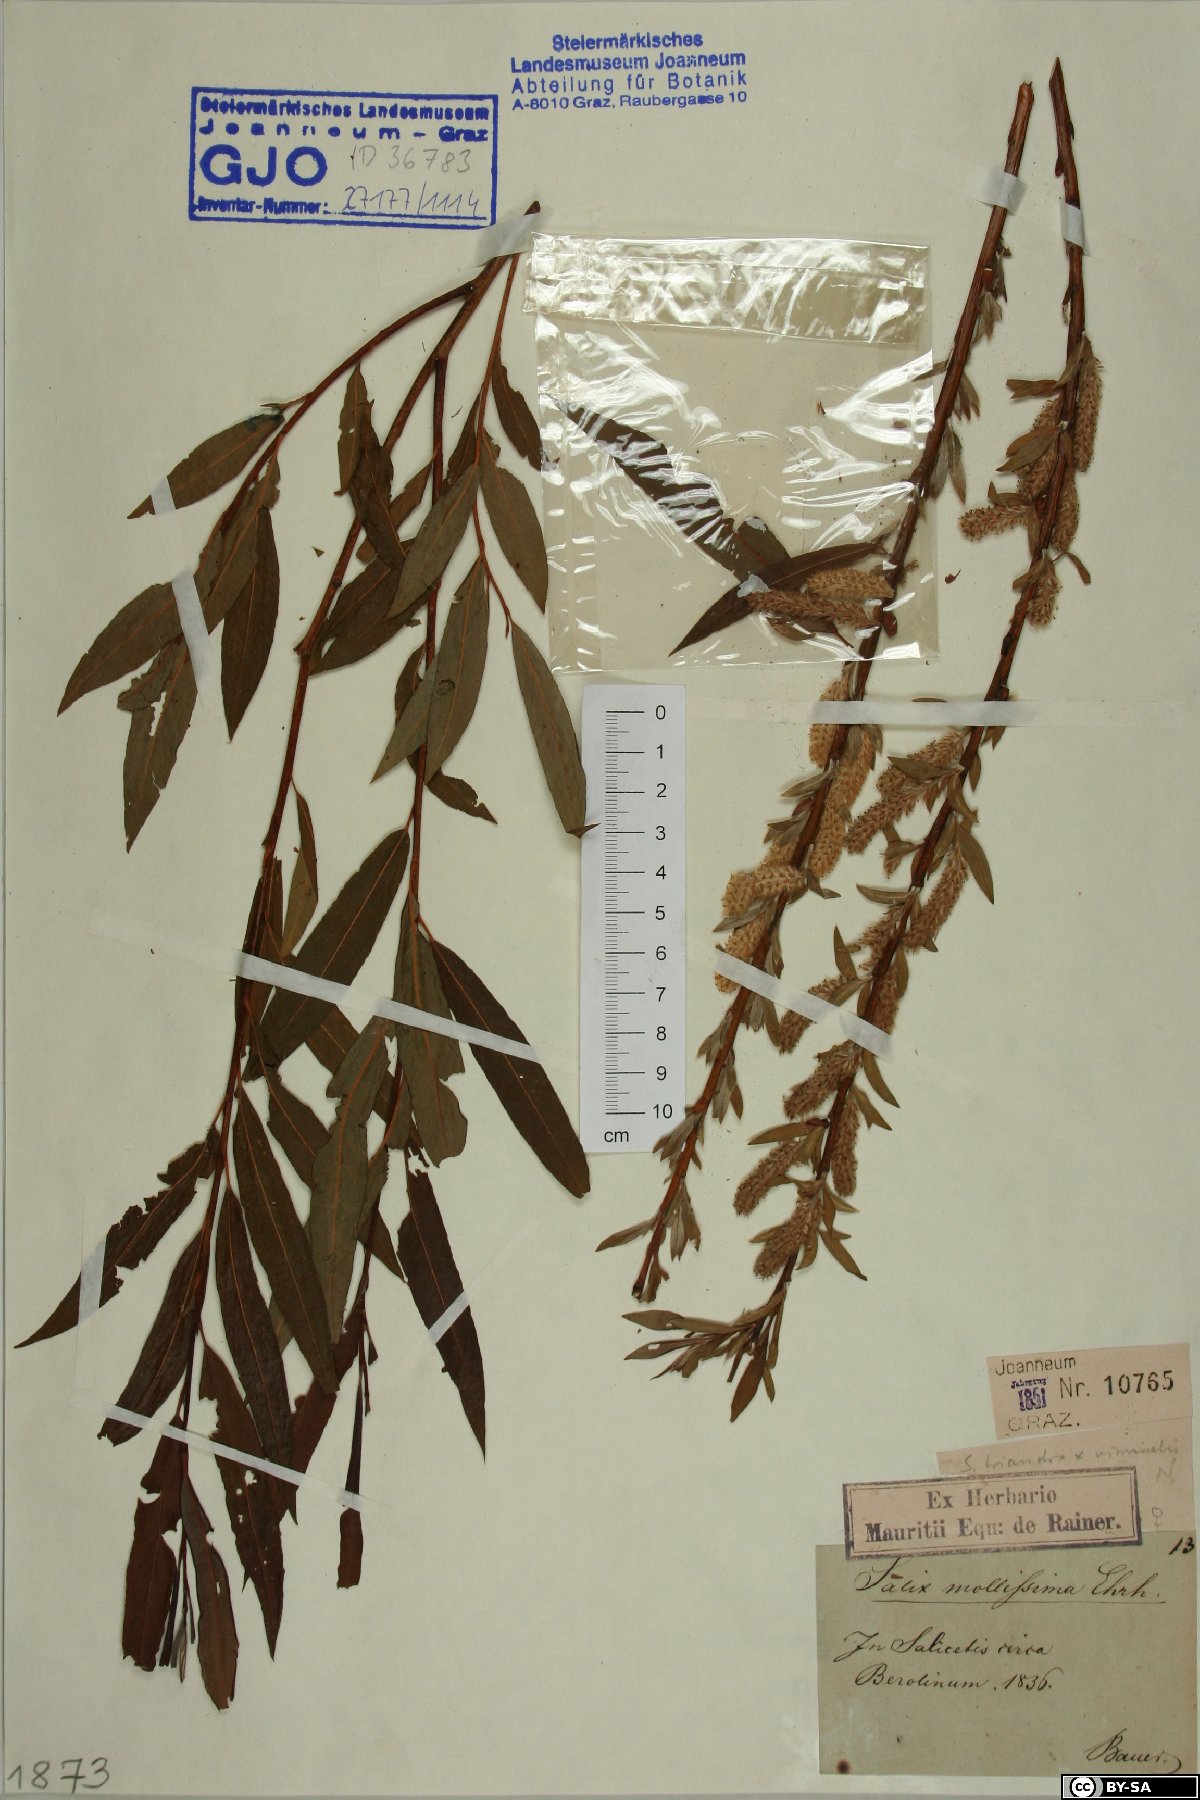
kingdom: Plantae
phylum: Tracheophyta
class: Magnoliopsida
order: Malpighiales
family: Salicaceae
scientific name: Salicaceae
